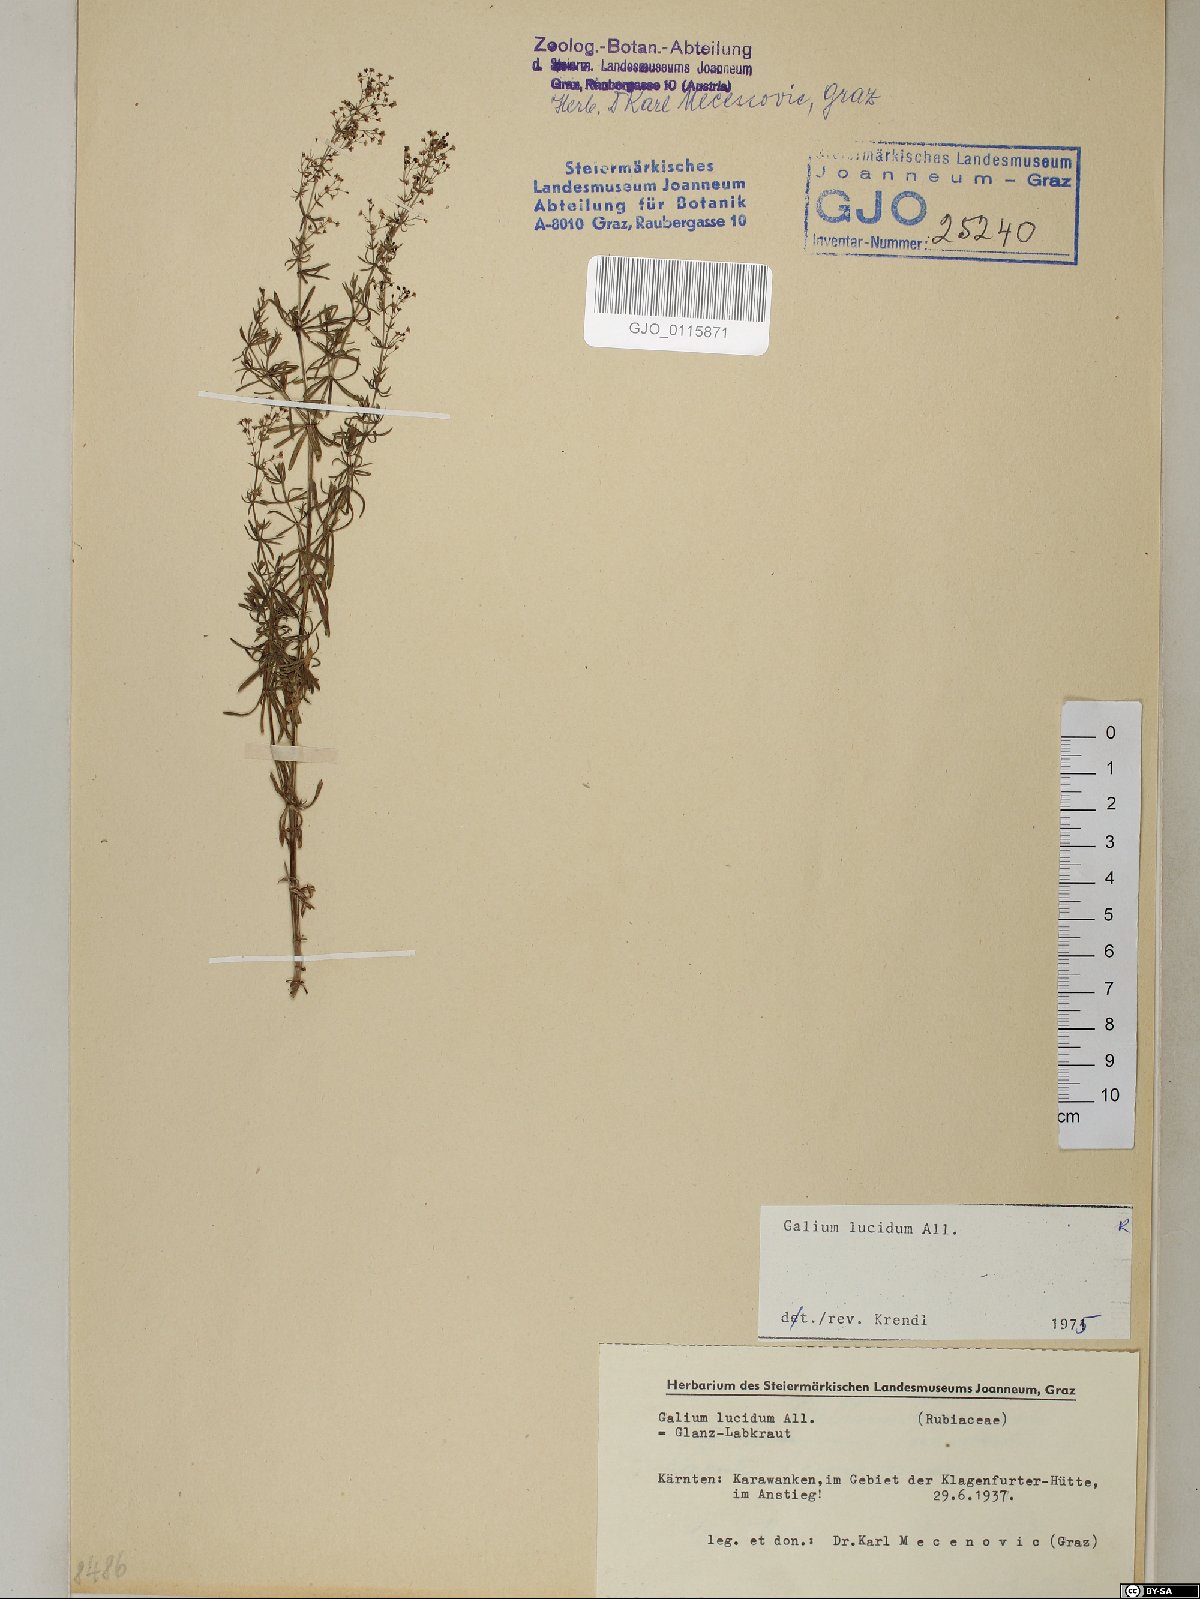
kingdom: Plantae
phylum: Tracheophyta
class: Magnoliopsida
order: Gentianales
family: Rubiaceae
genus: Galium
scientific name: Galium lucidum
